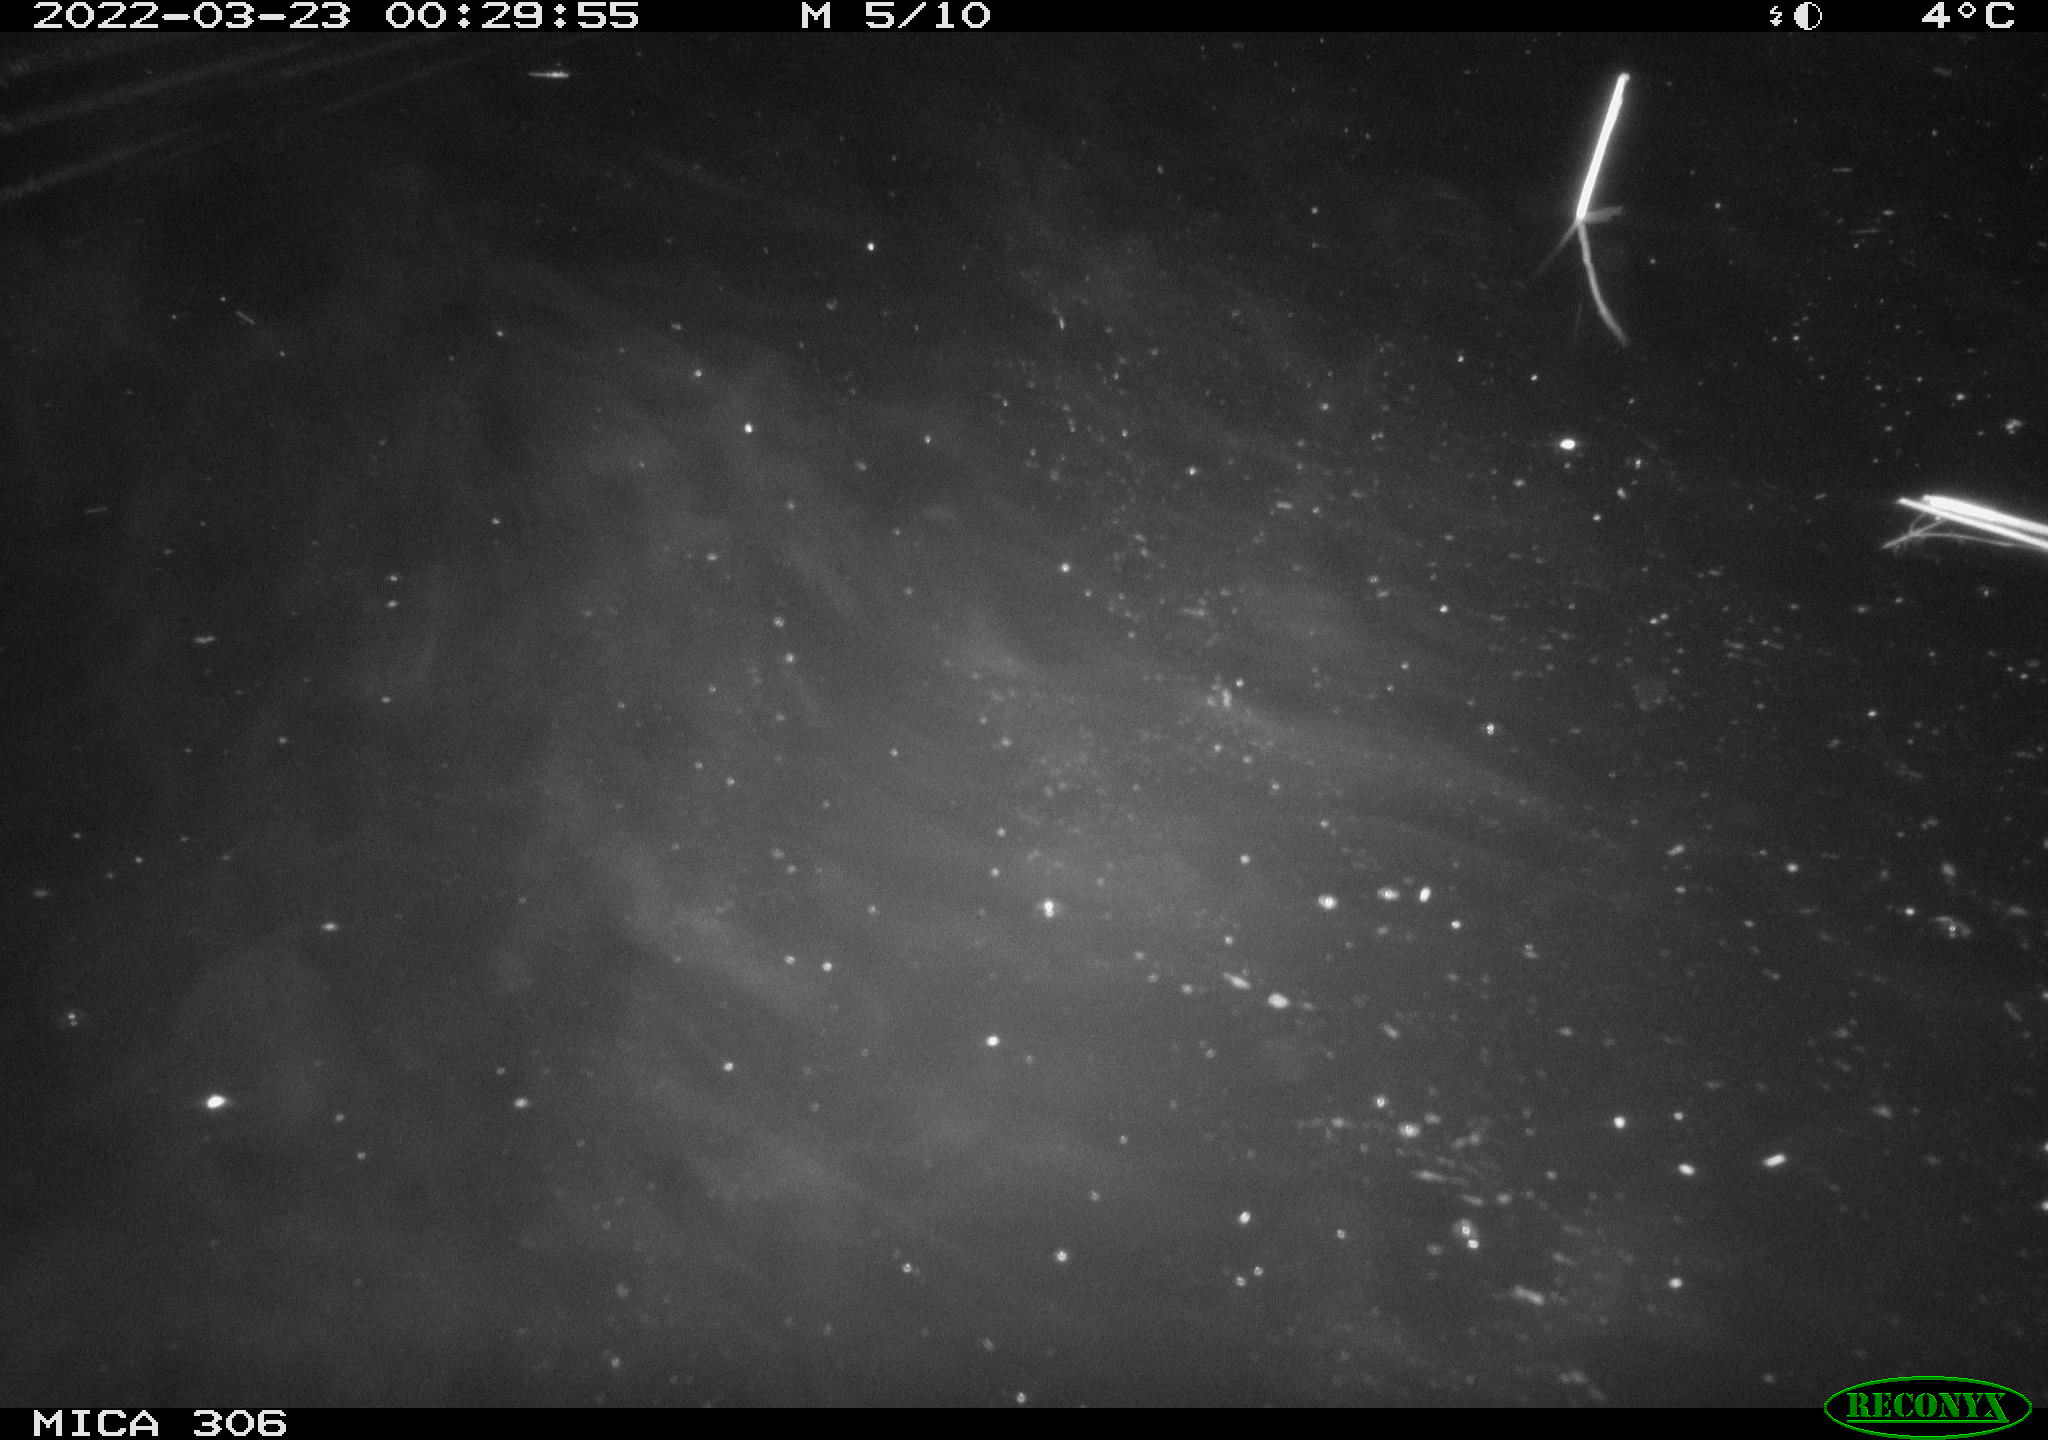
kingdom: Animalia
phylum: Chordata
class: Mammalia
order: Rodentia
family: Cricetidae
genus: Ondatra
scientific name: Ondatra zibethicus
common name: Muskrat
